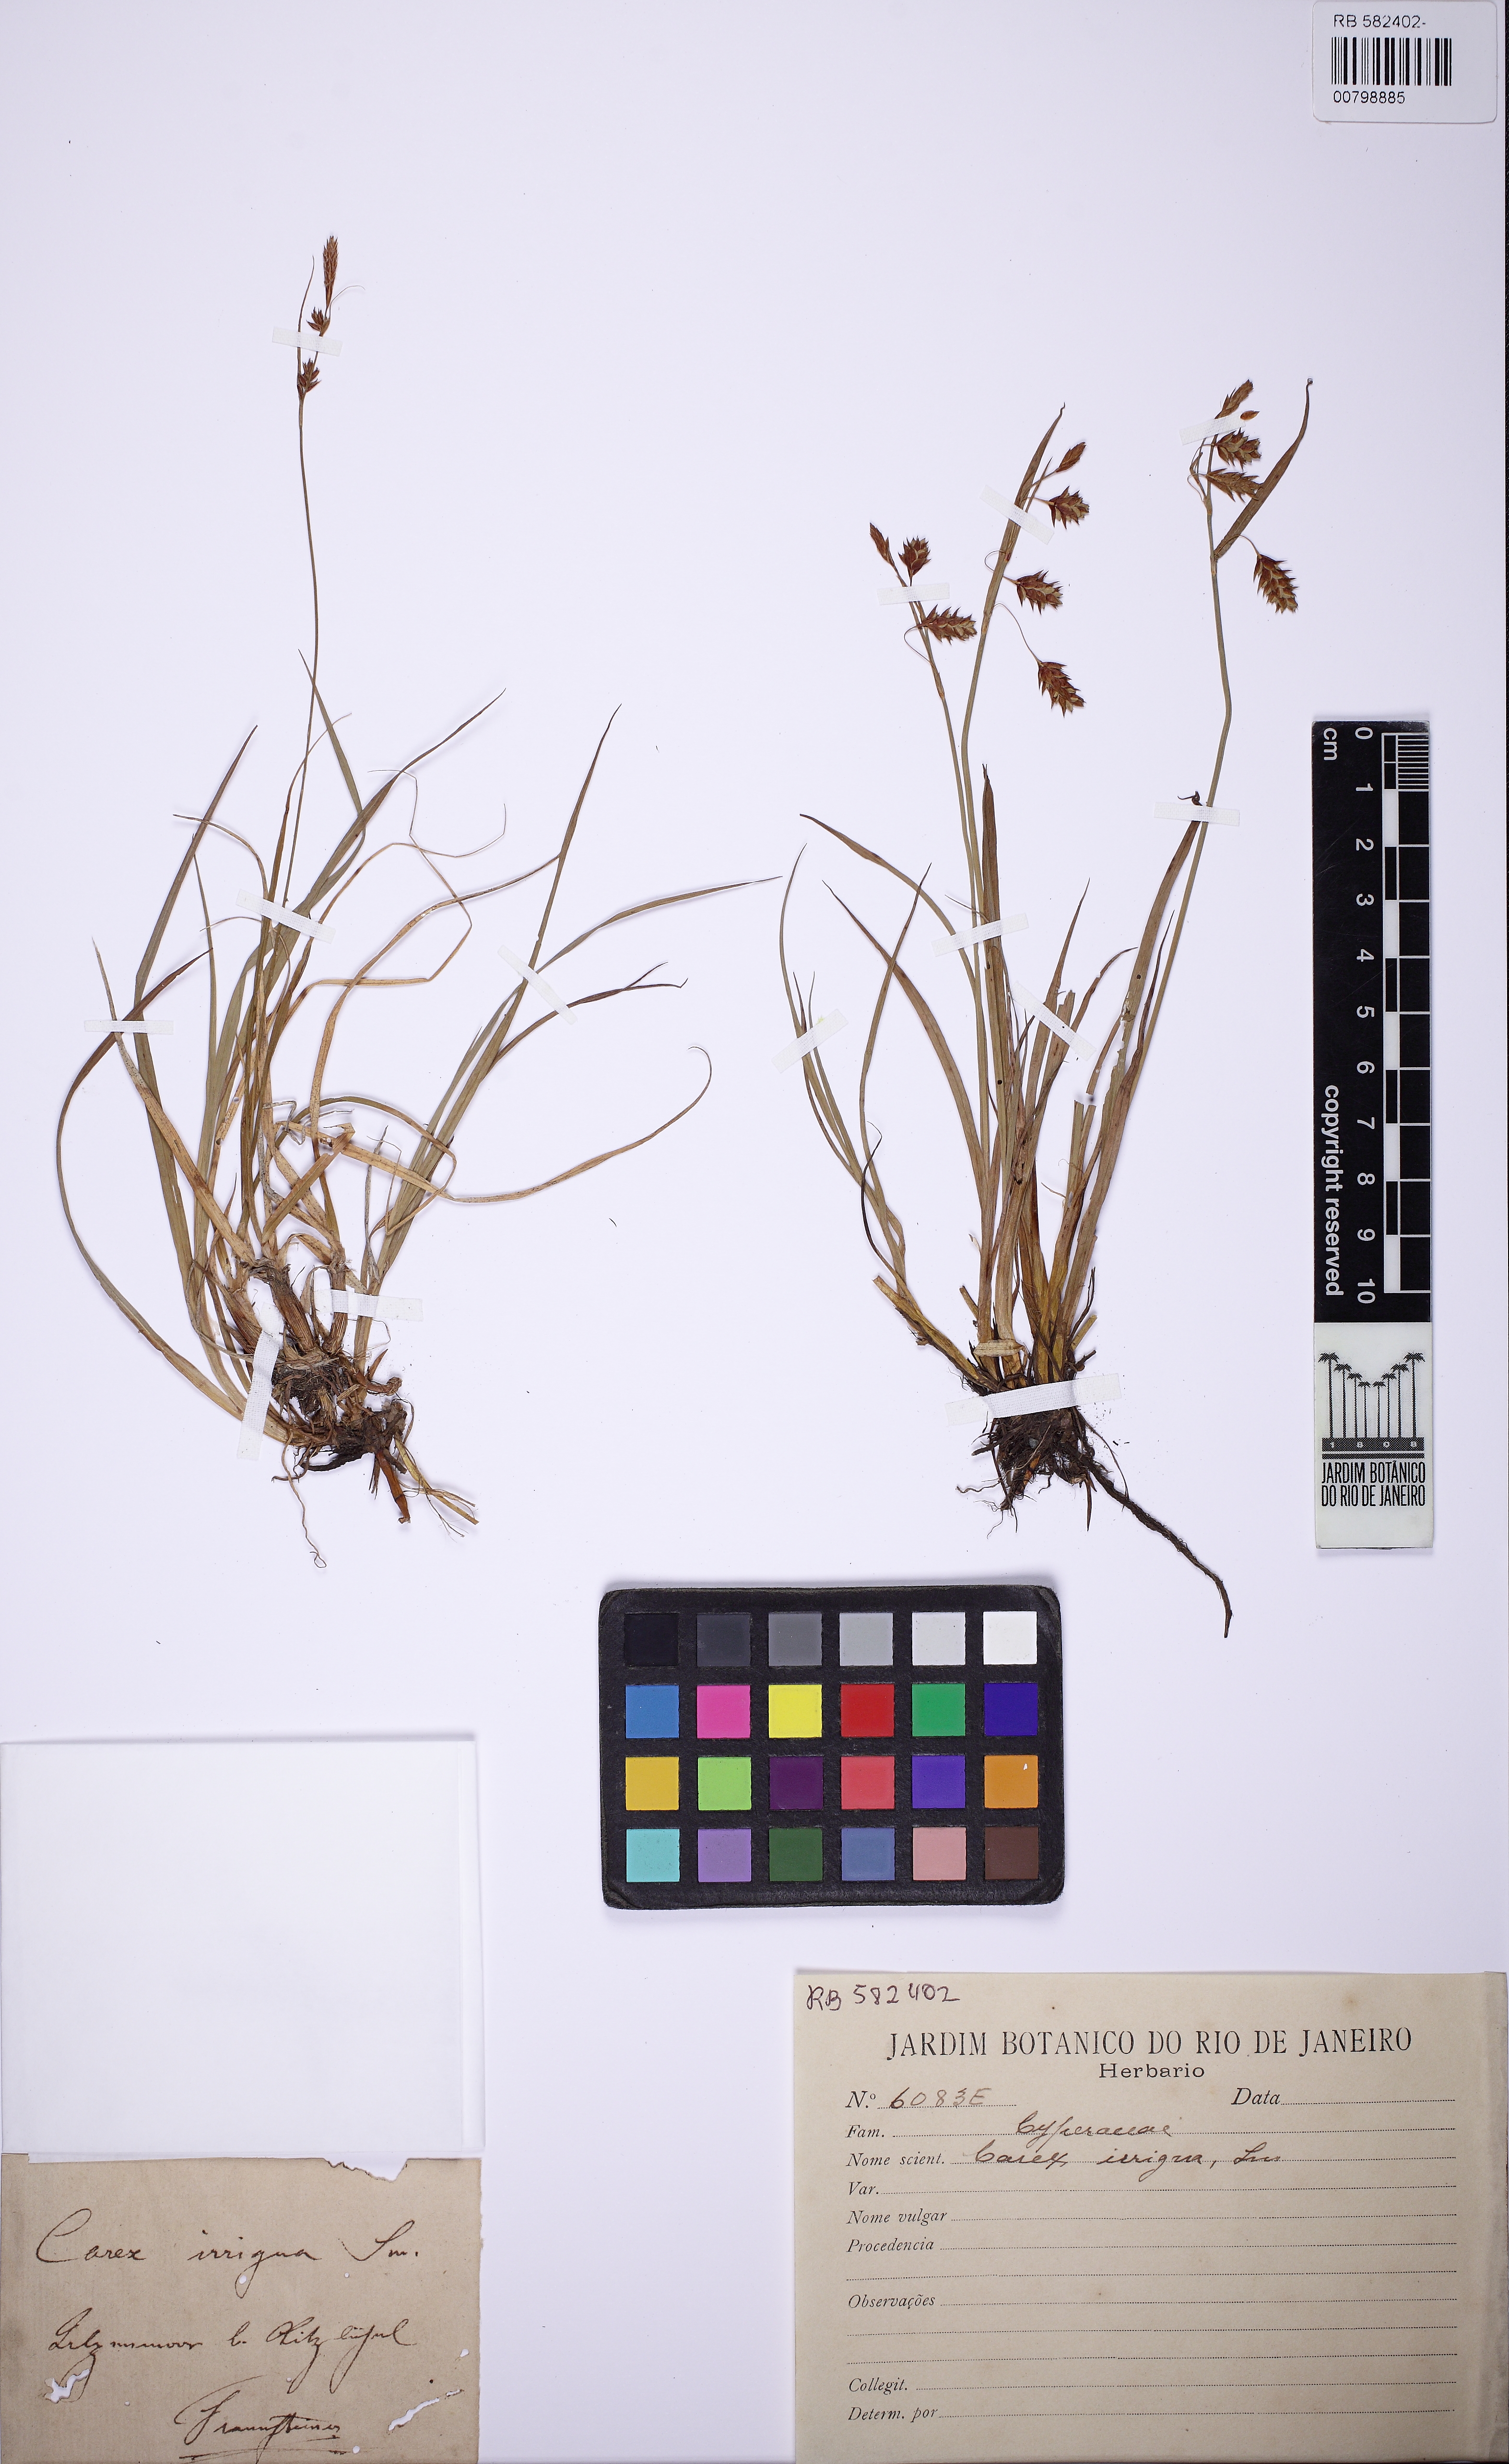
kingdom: Plantae
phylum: Tracheophyta
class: Liliopsida
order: Poales
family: Cyperaceae
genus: Carex
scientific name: Carex irrigua
